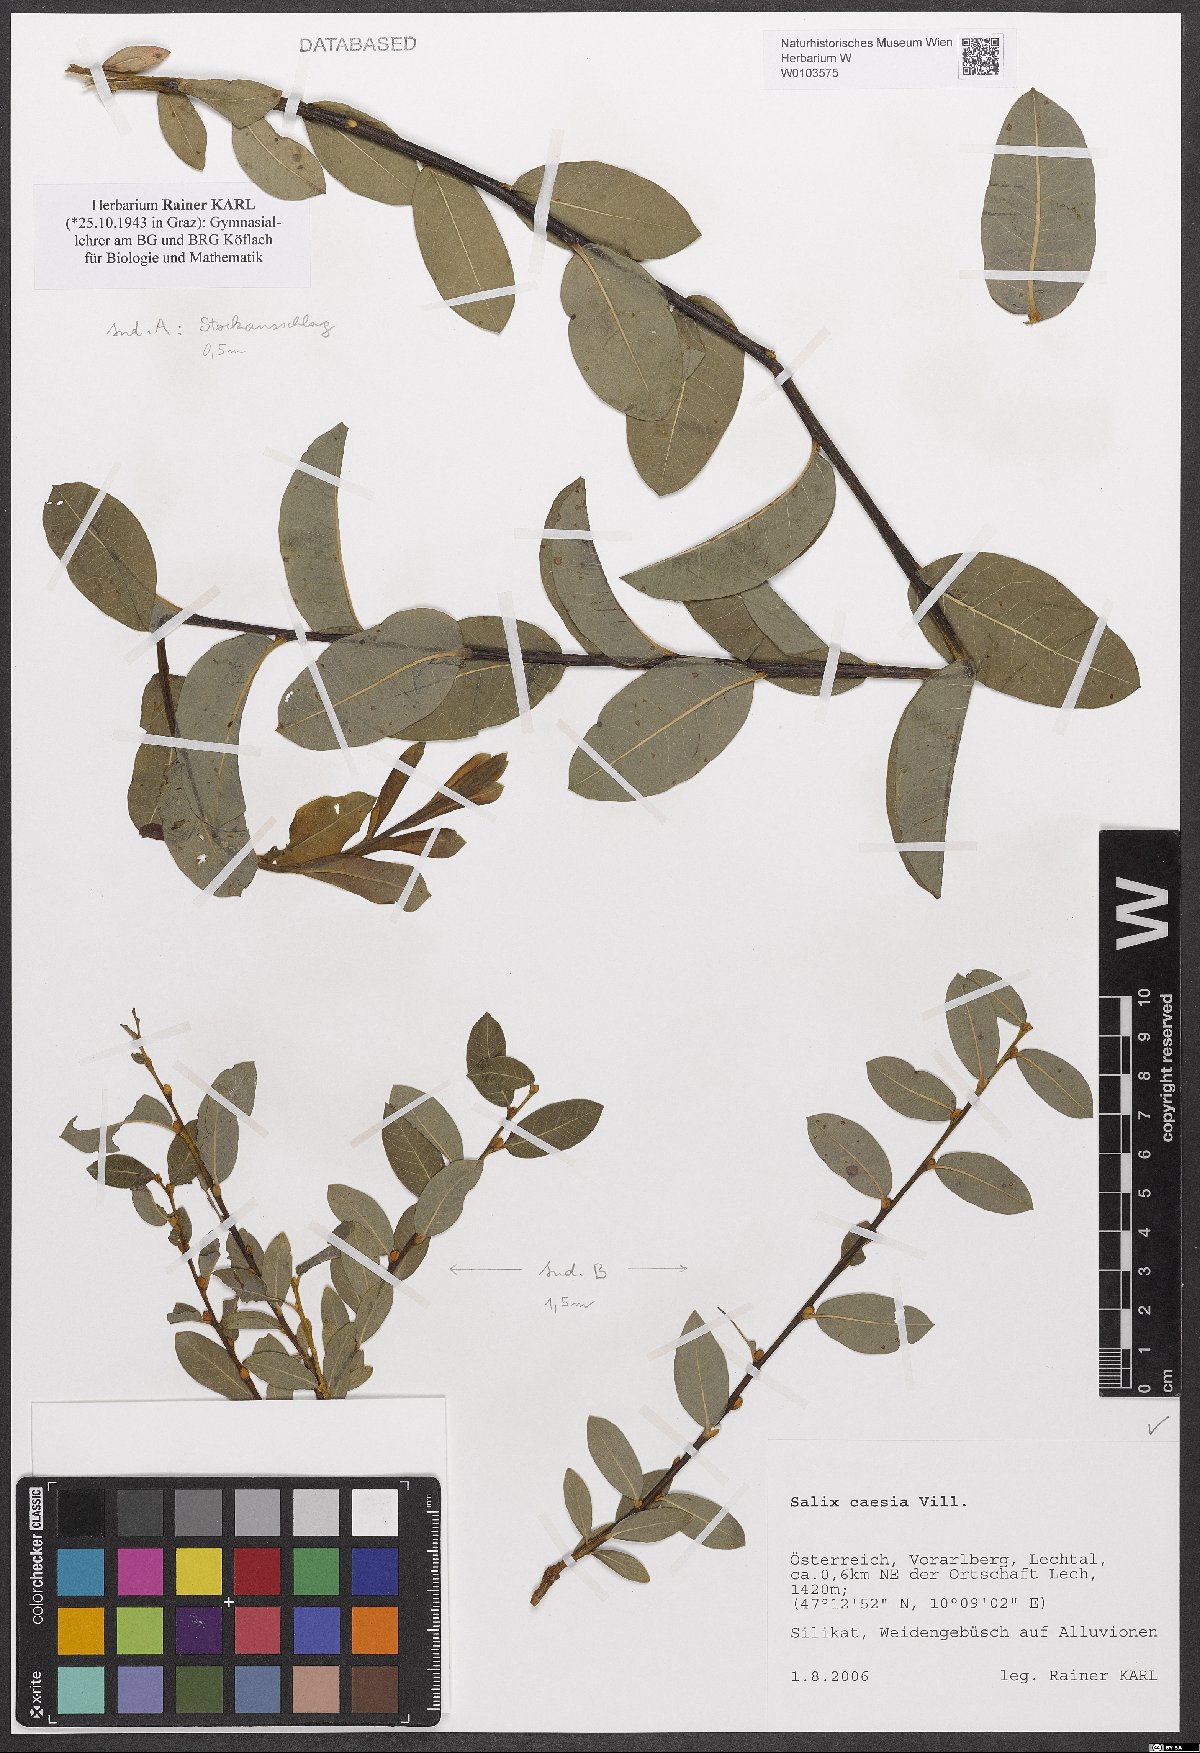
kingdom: Plantae
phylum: Tracheophyta
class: Magnoliopsida
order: Malpighiales
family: Salicaceae
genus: Salix
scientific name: Salix caesia
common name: Blue willow
